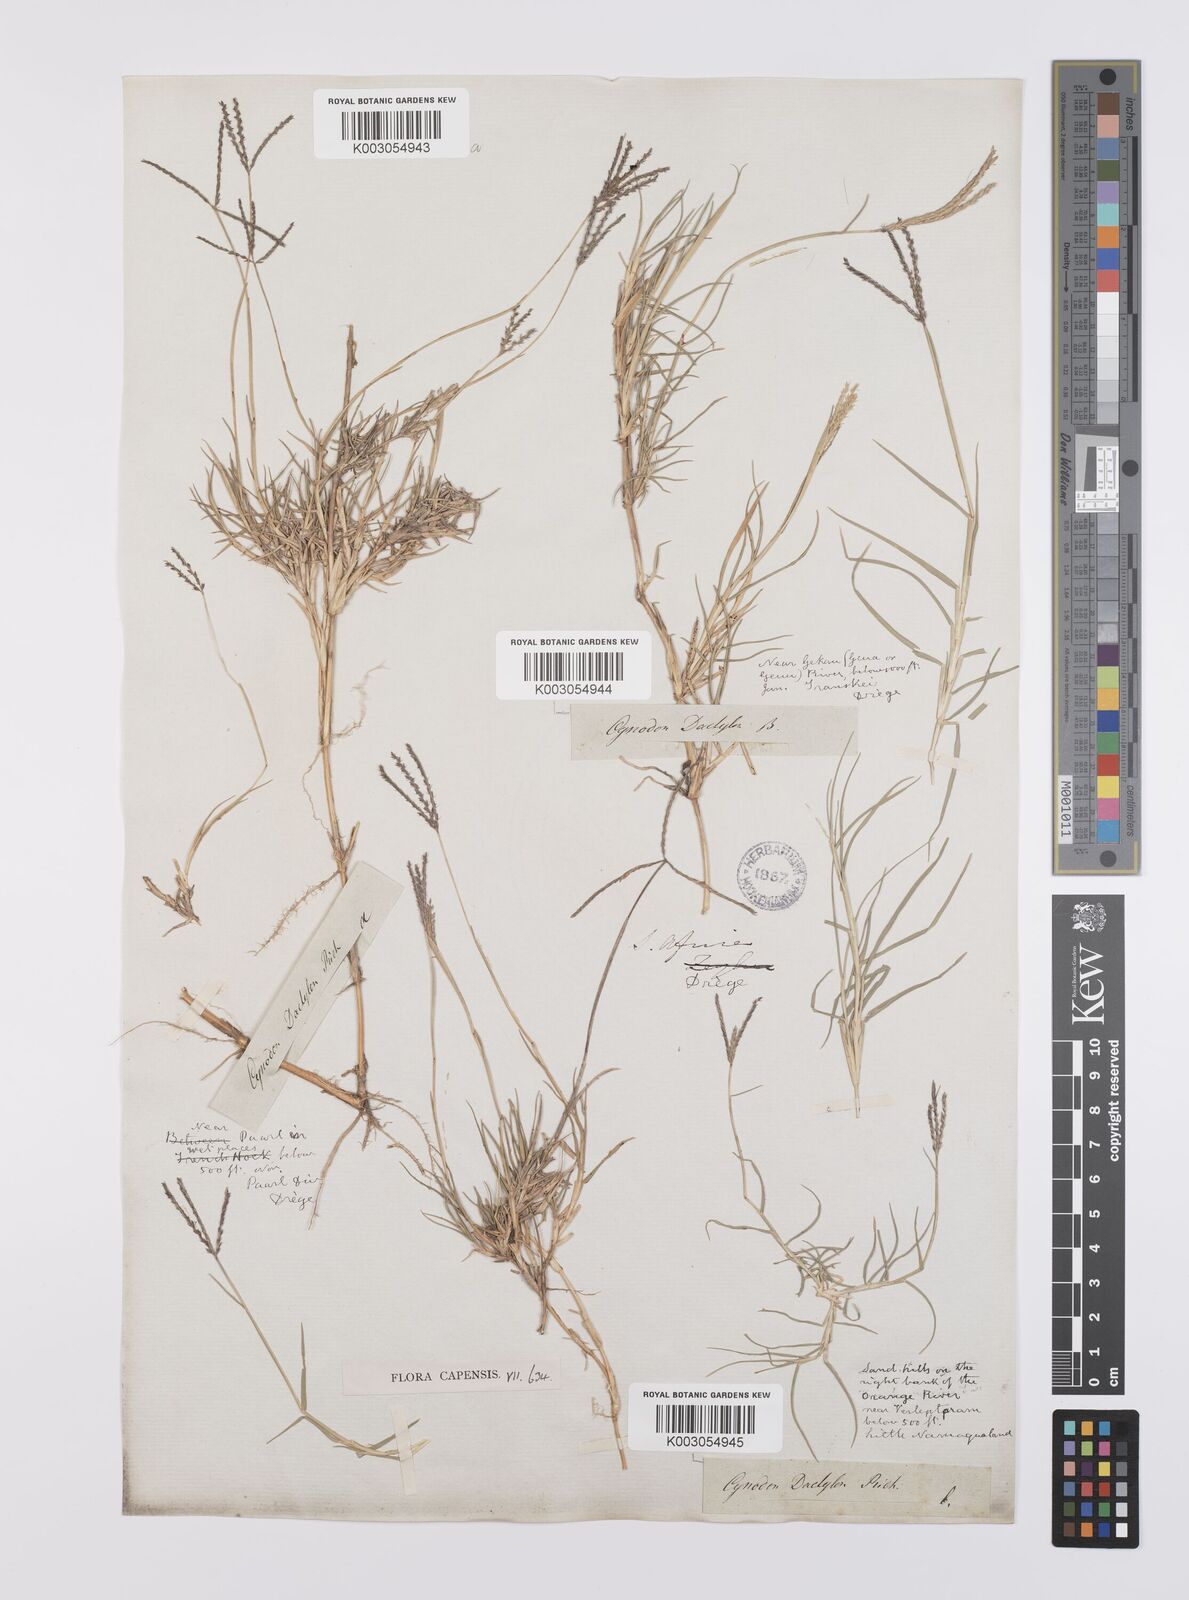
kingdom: Plantae
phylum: Tracheophyta
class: Liliopsida
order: Poales
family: Poaceae
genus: Cynodon
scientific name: Cynodon dactylon
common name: Bermuda grass
